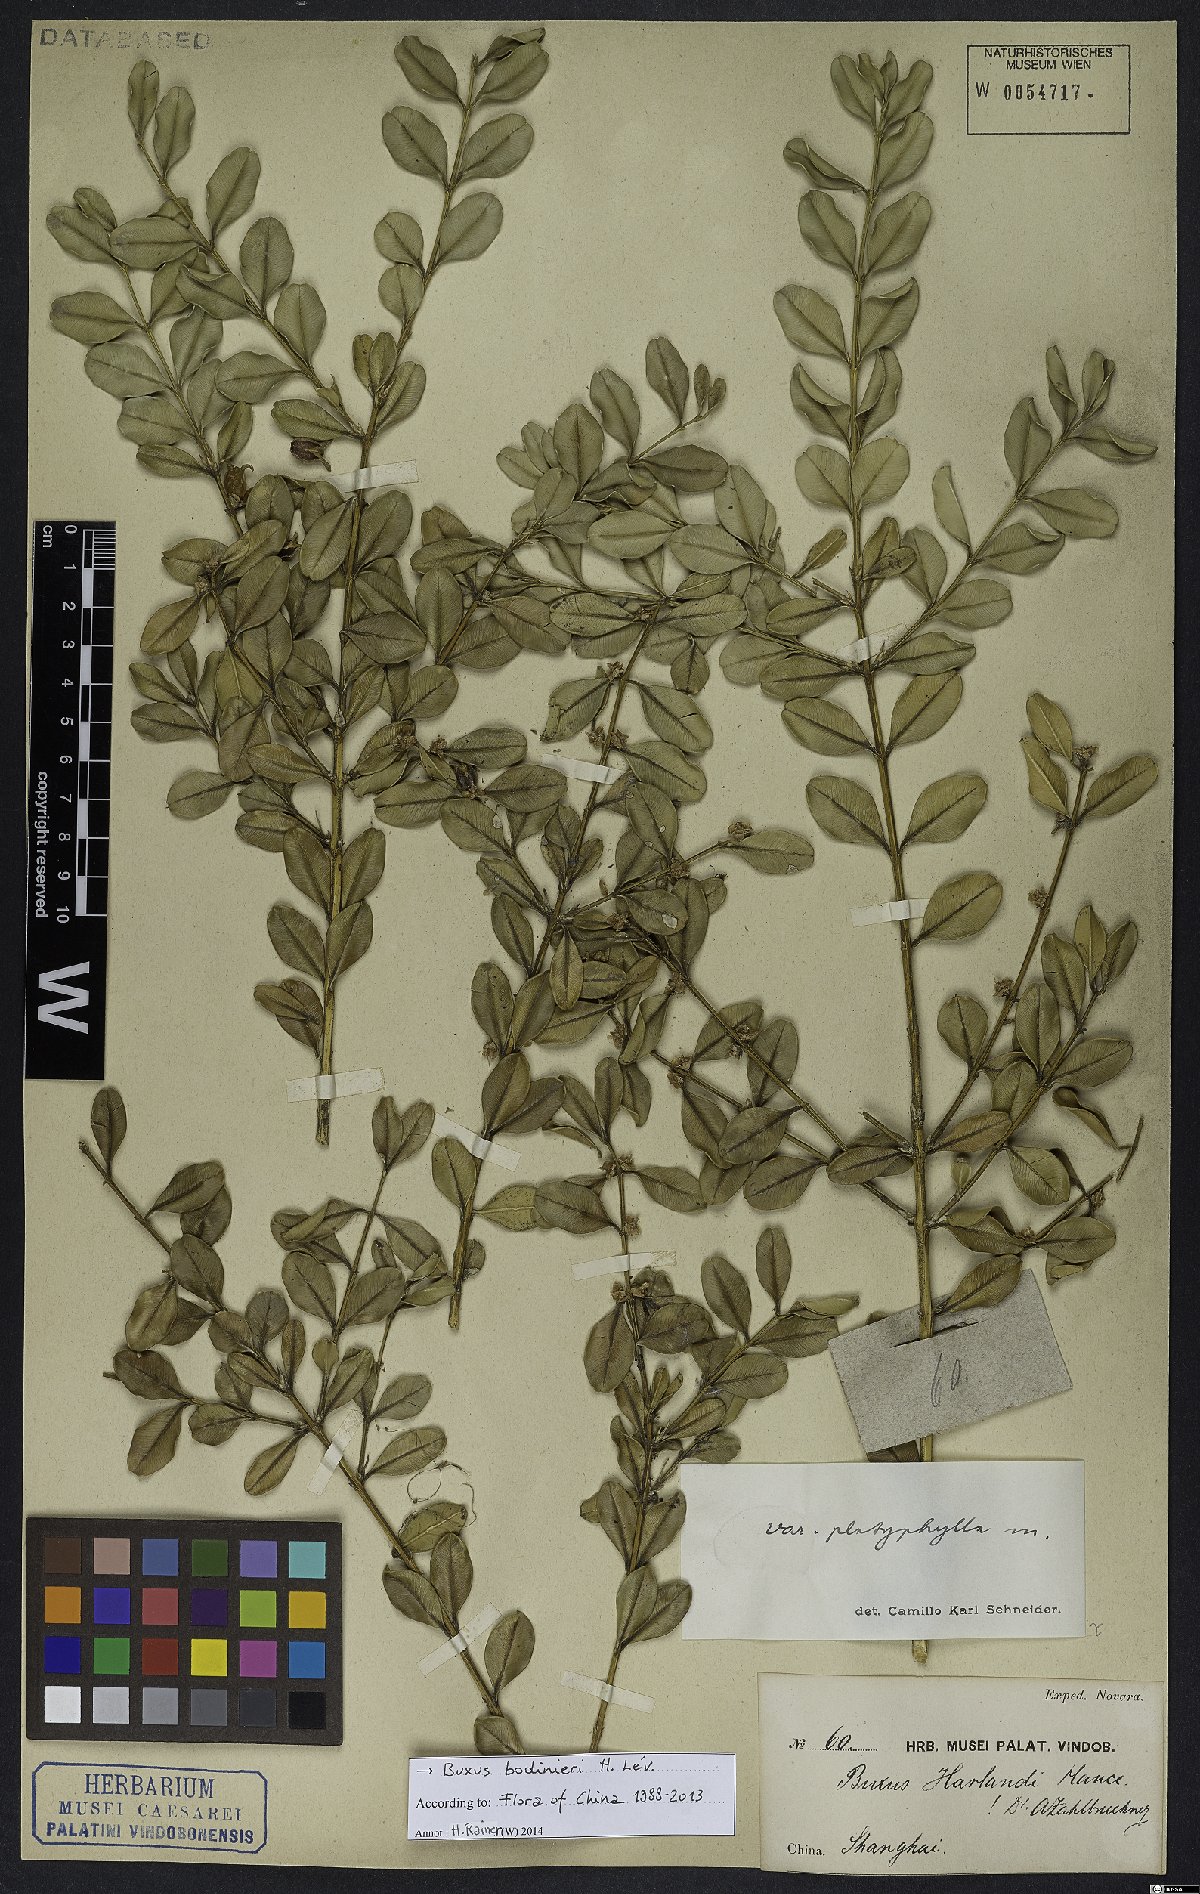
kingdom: Plantae
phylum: Tracheophyta
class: Magnoliopsida
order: Buxales
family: Buxaceae
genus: Buxus
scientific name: Buxus bodinieri
